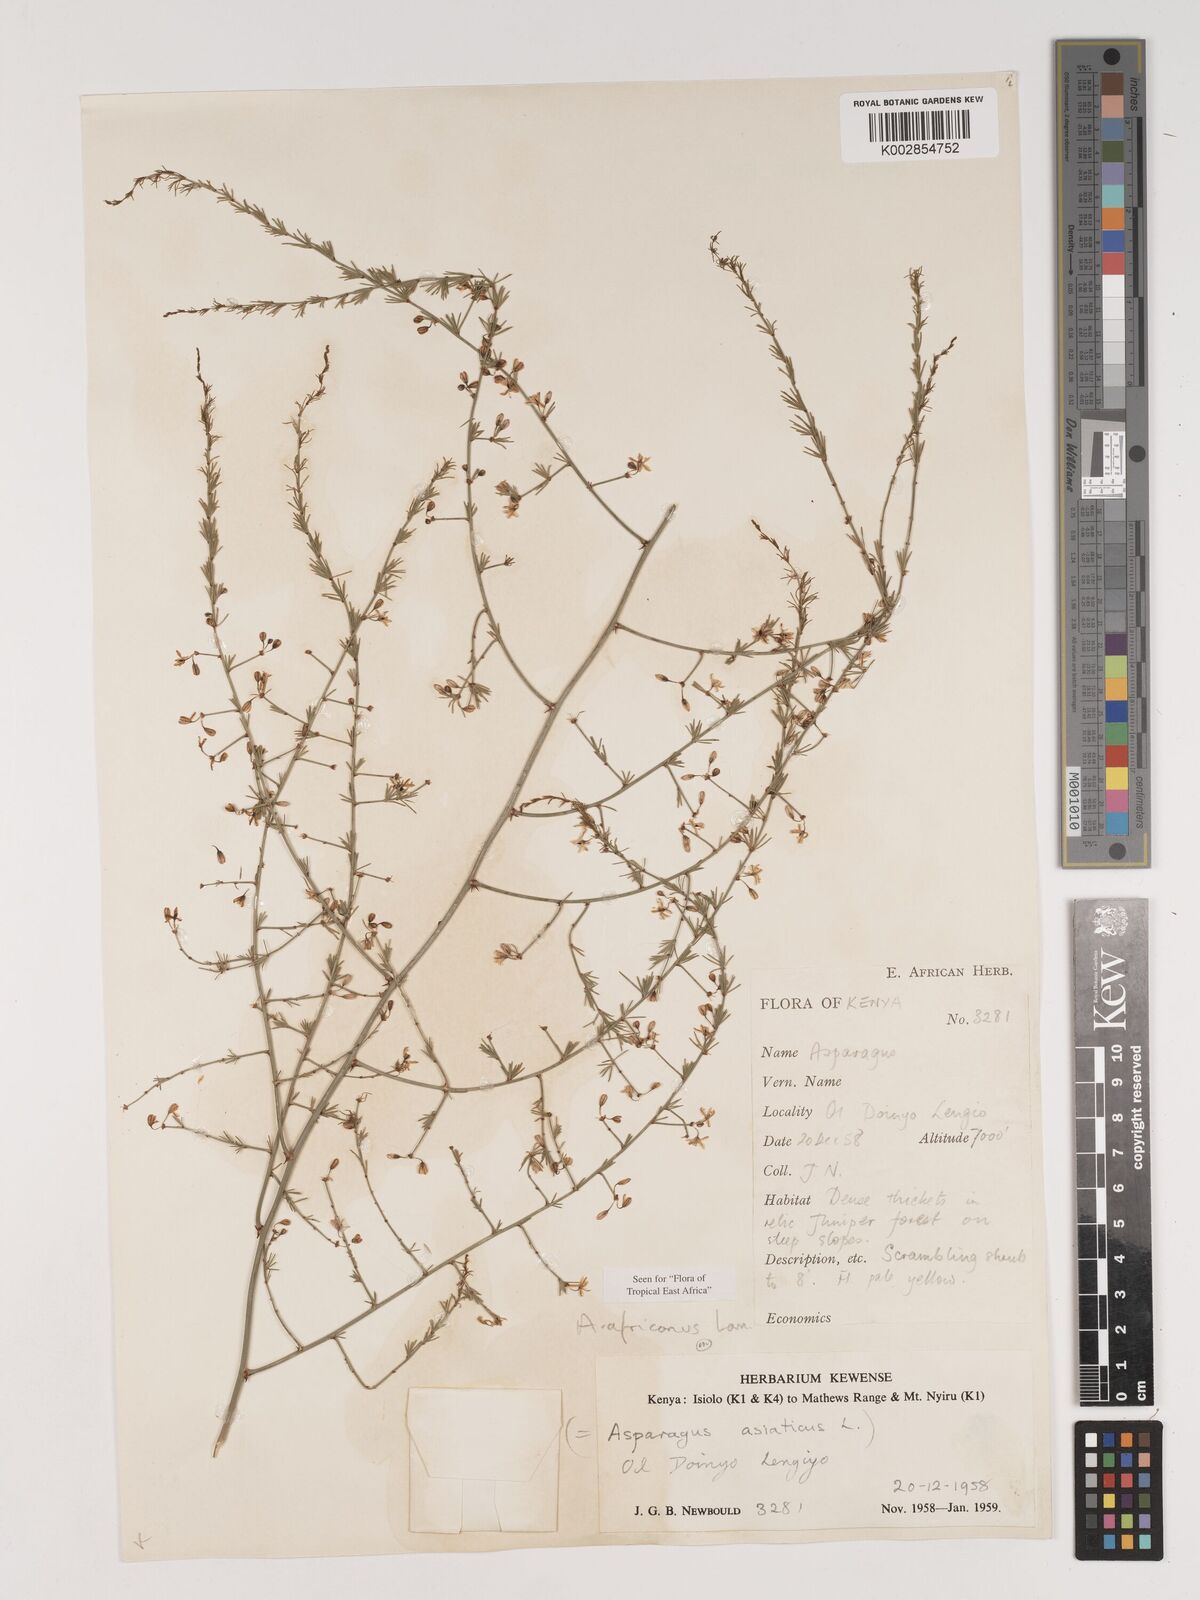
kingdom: Plantae
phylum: Tracheophyta
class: Liliopsida
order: Asparagales
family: Asparagaceae
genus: Asparagus
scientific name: Asparagus africanus
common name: Asparagus-fern
